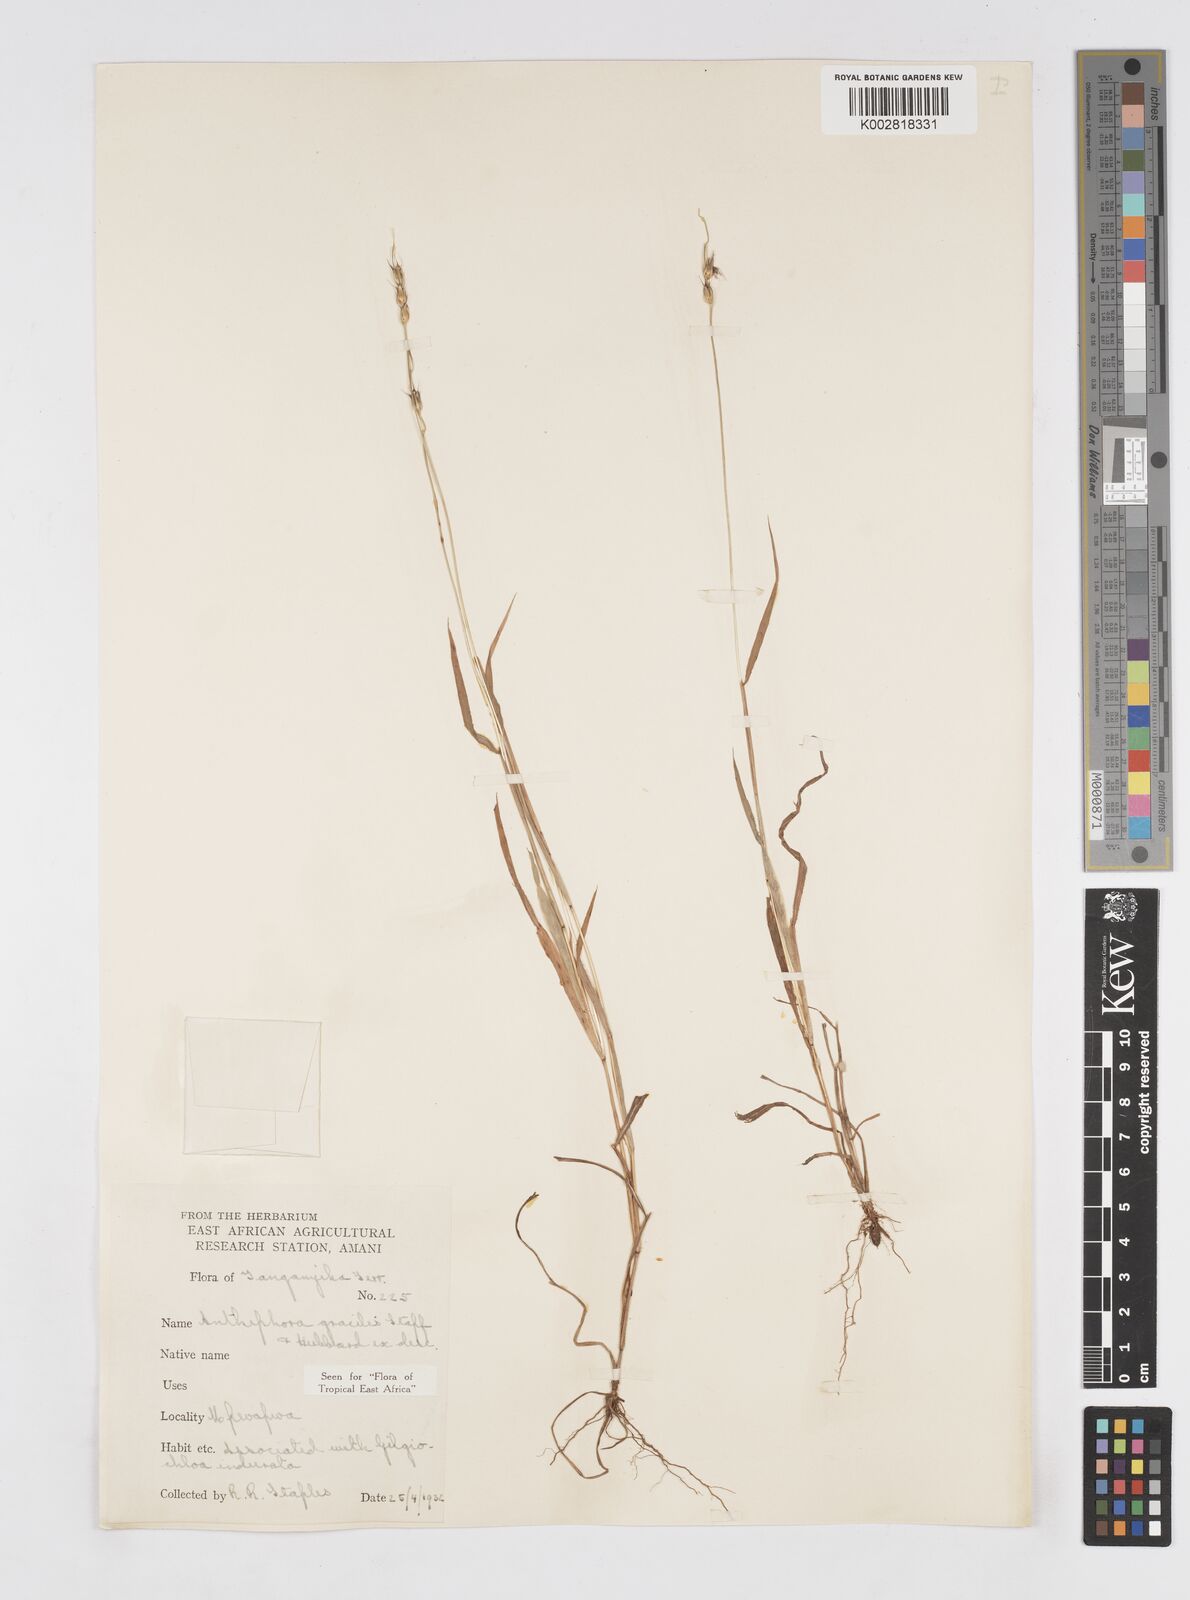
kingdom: Plantae
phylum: Tracheophyta
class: Liliopsida
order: Poales
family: Poaceae
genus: Anthephora
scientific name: Anthephora truncata
